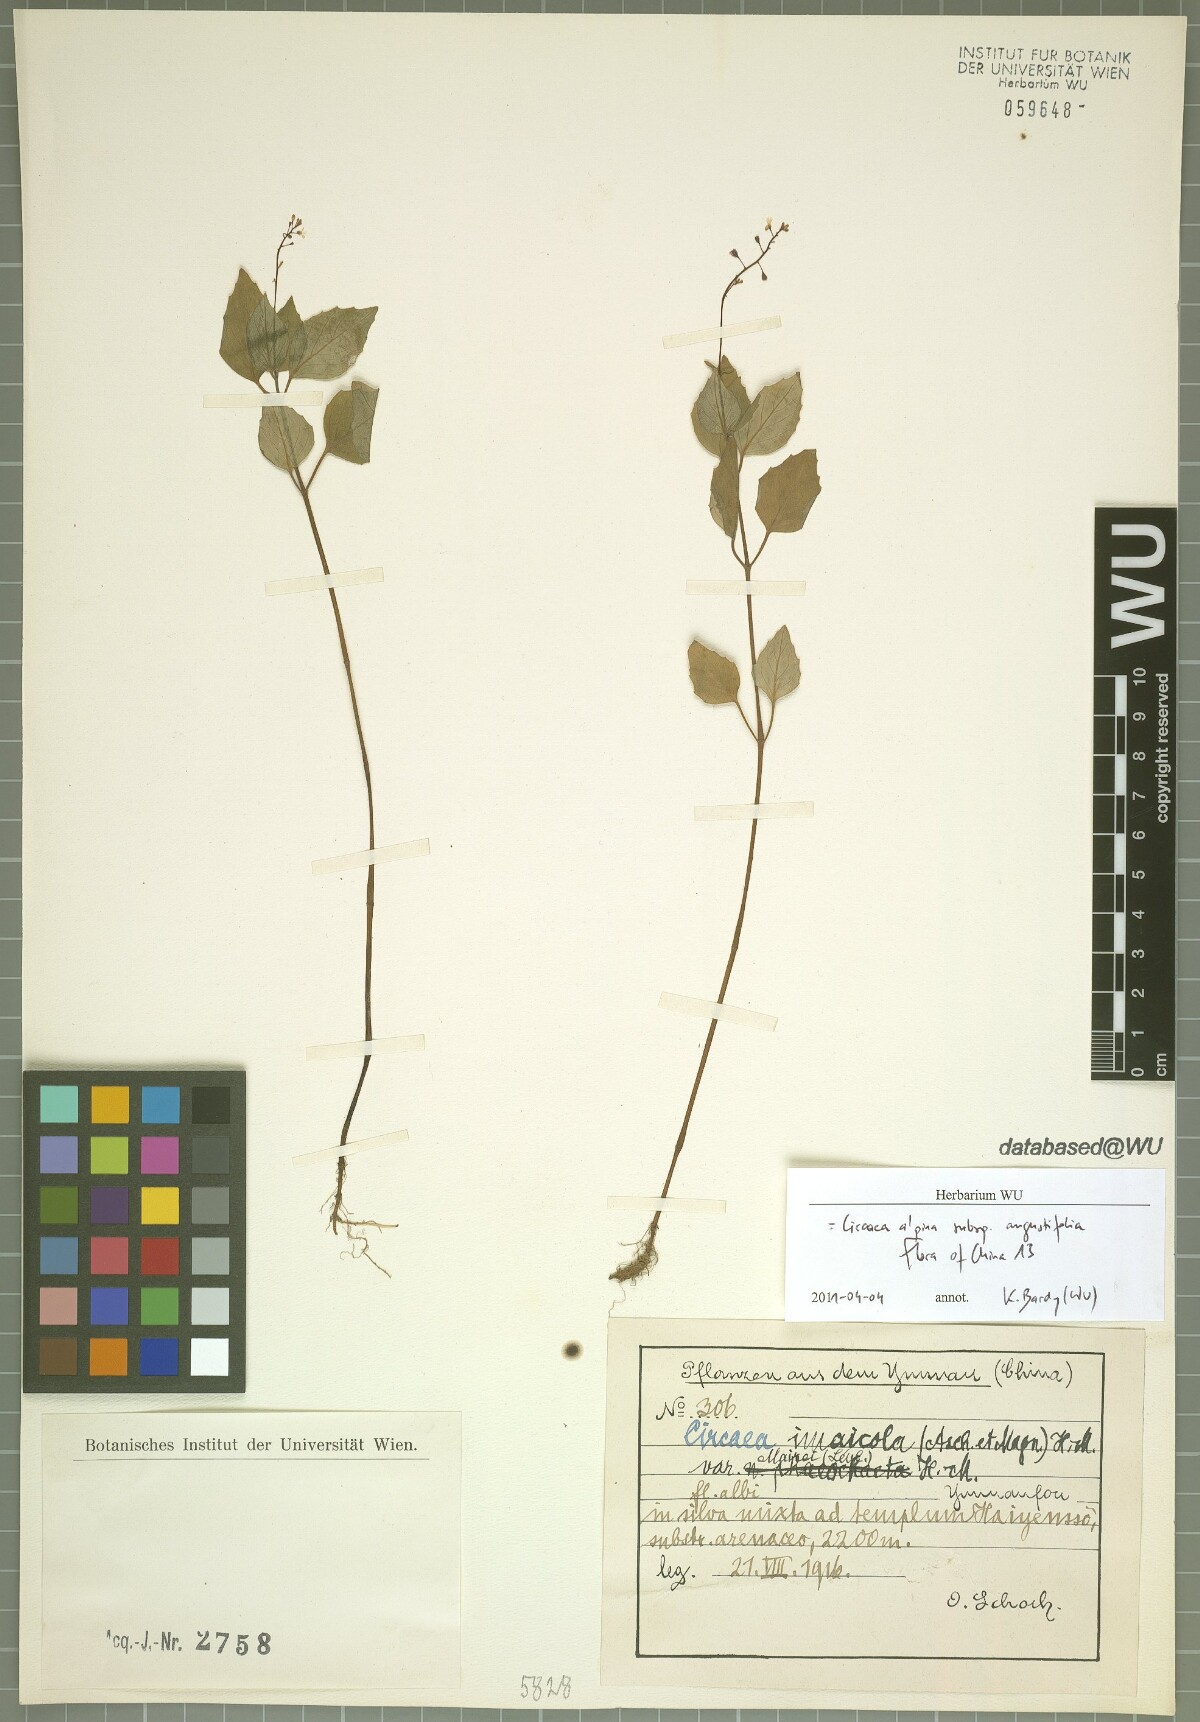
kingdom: Plantae
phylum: Tracheophyta
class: Magnoliopsida
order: Myrtales
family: Onagraceae
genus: Circaea
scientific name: Circaea alpina
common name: Alpine enchanter's-nightshade
